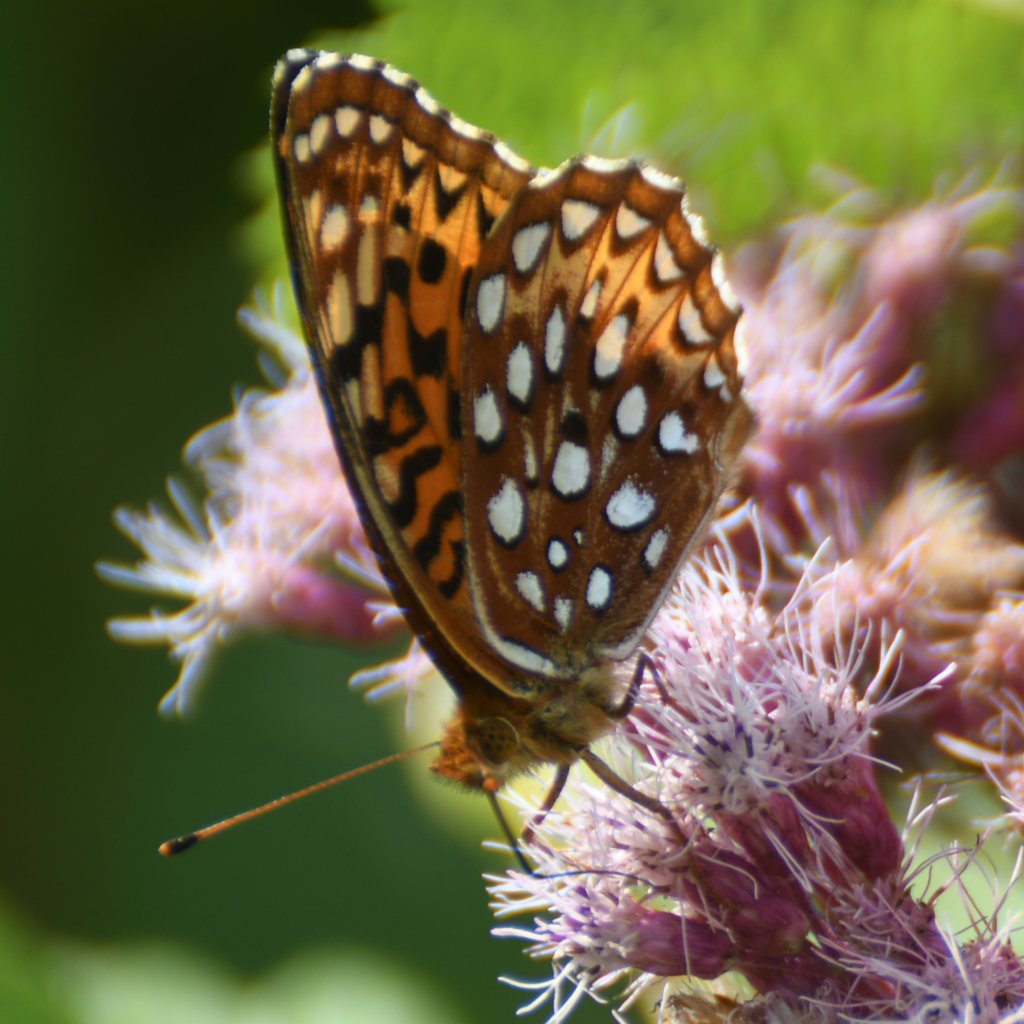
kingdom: Animalia
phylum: Arthropoda
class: Insecta
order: Lepidoptera
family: Nymphalidae
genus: Speyeria
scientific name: Speyeria aphrodite
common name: Aphrodite Fritillary
